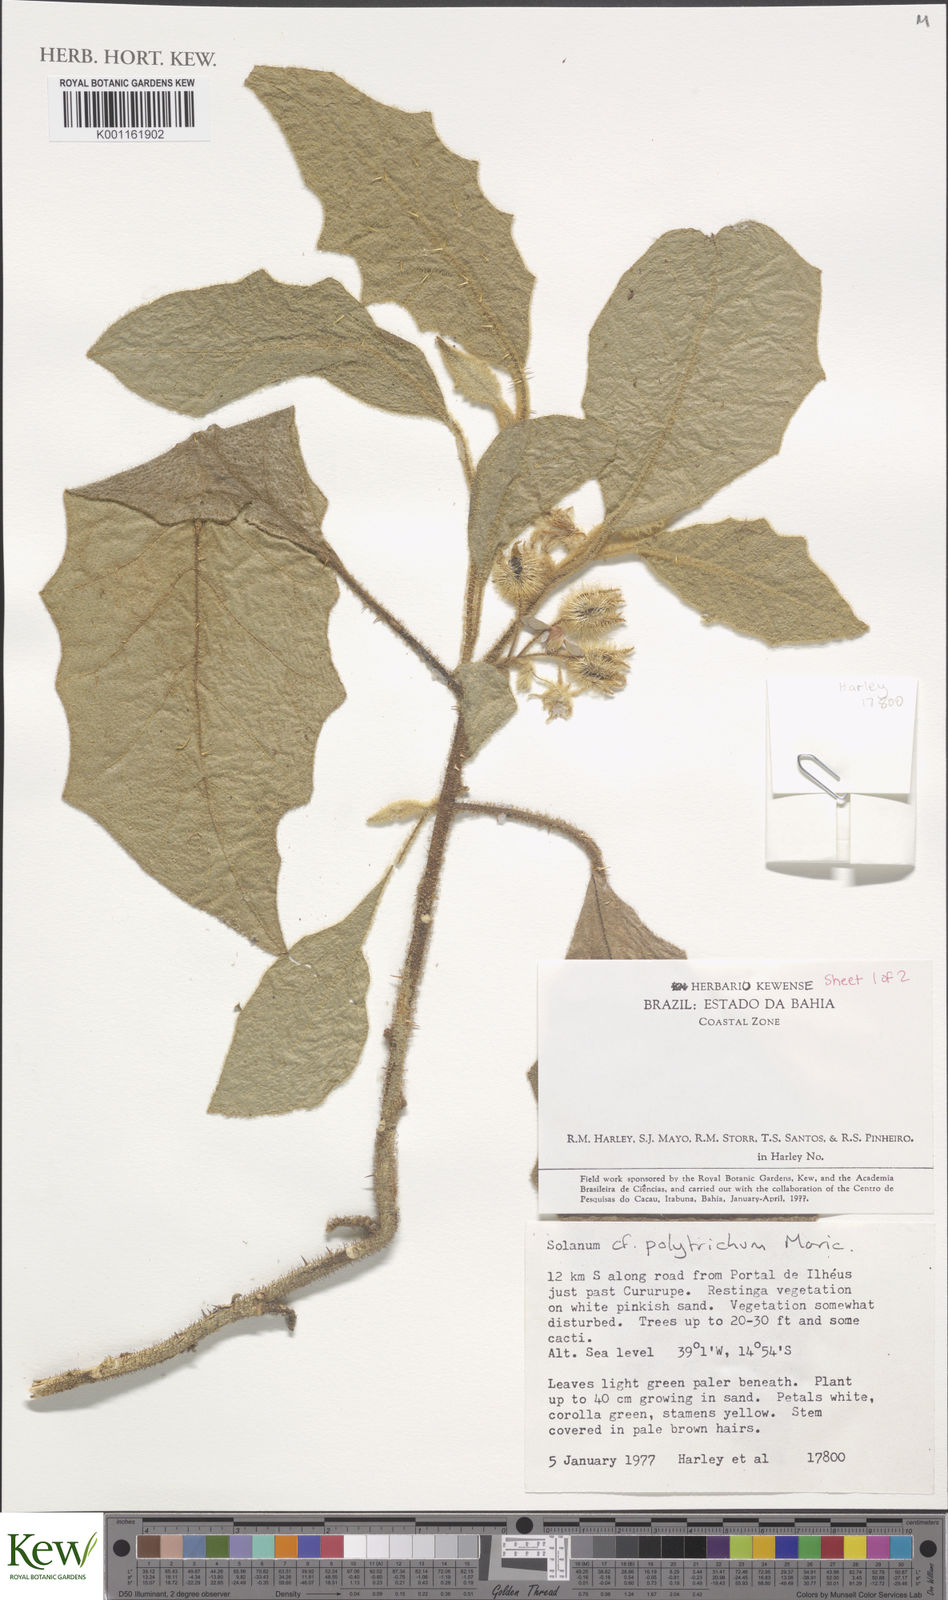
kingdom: Plantae
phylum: Tracheophyta
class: Magnoliopsida
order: Solanales
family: Solanaceae
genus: Solanum
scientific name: Solanum polytrichum
